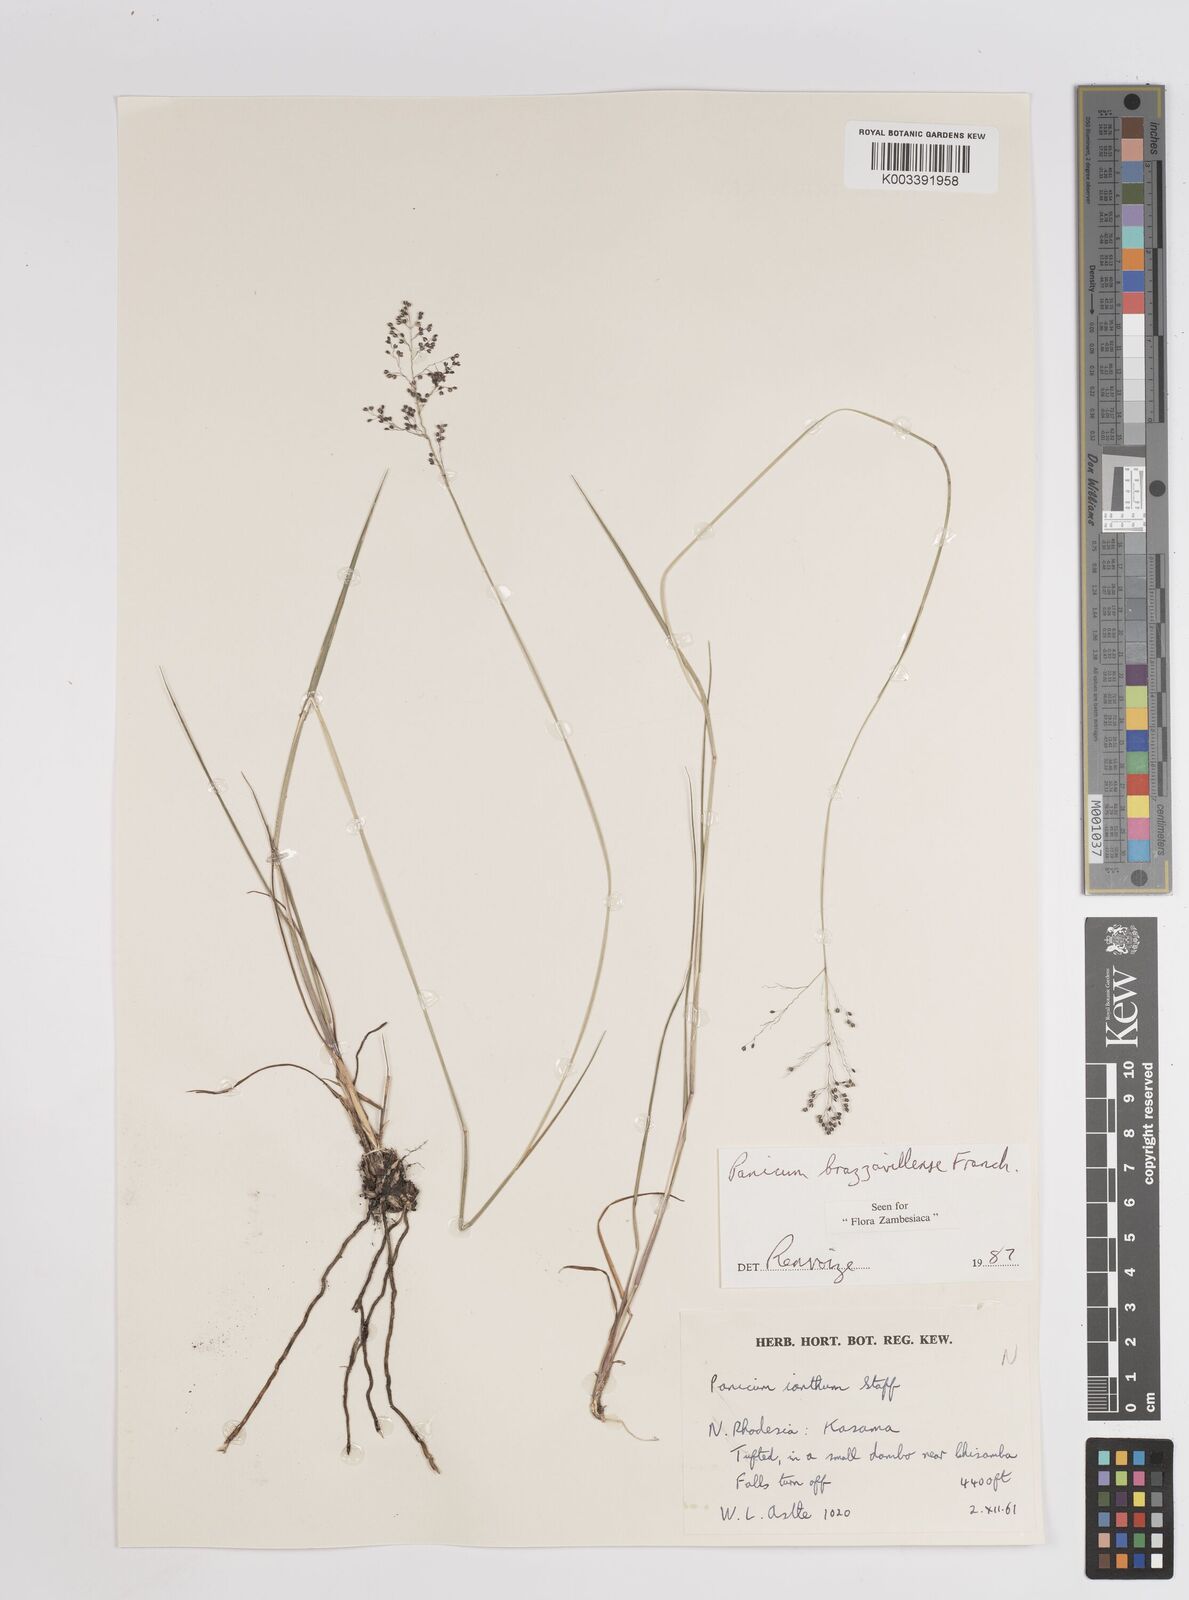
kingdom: Plantae
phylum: Tracheophyta
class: Liliopsida
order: Poales
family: Poaceae
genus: Trichanthecium
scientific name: Trichanthecium brazzavillense
